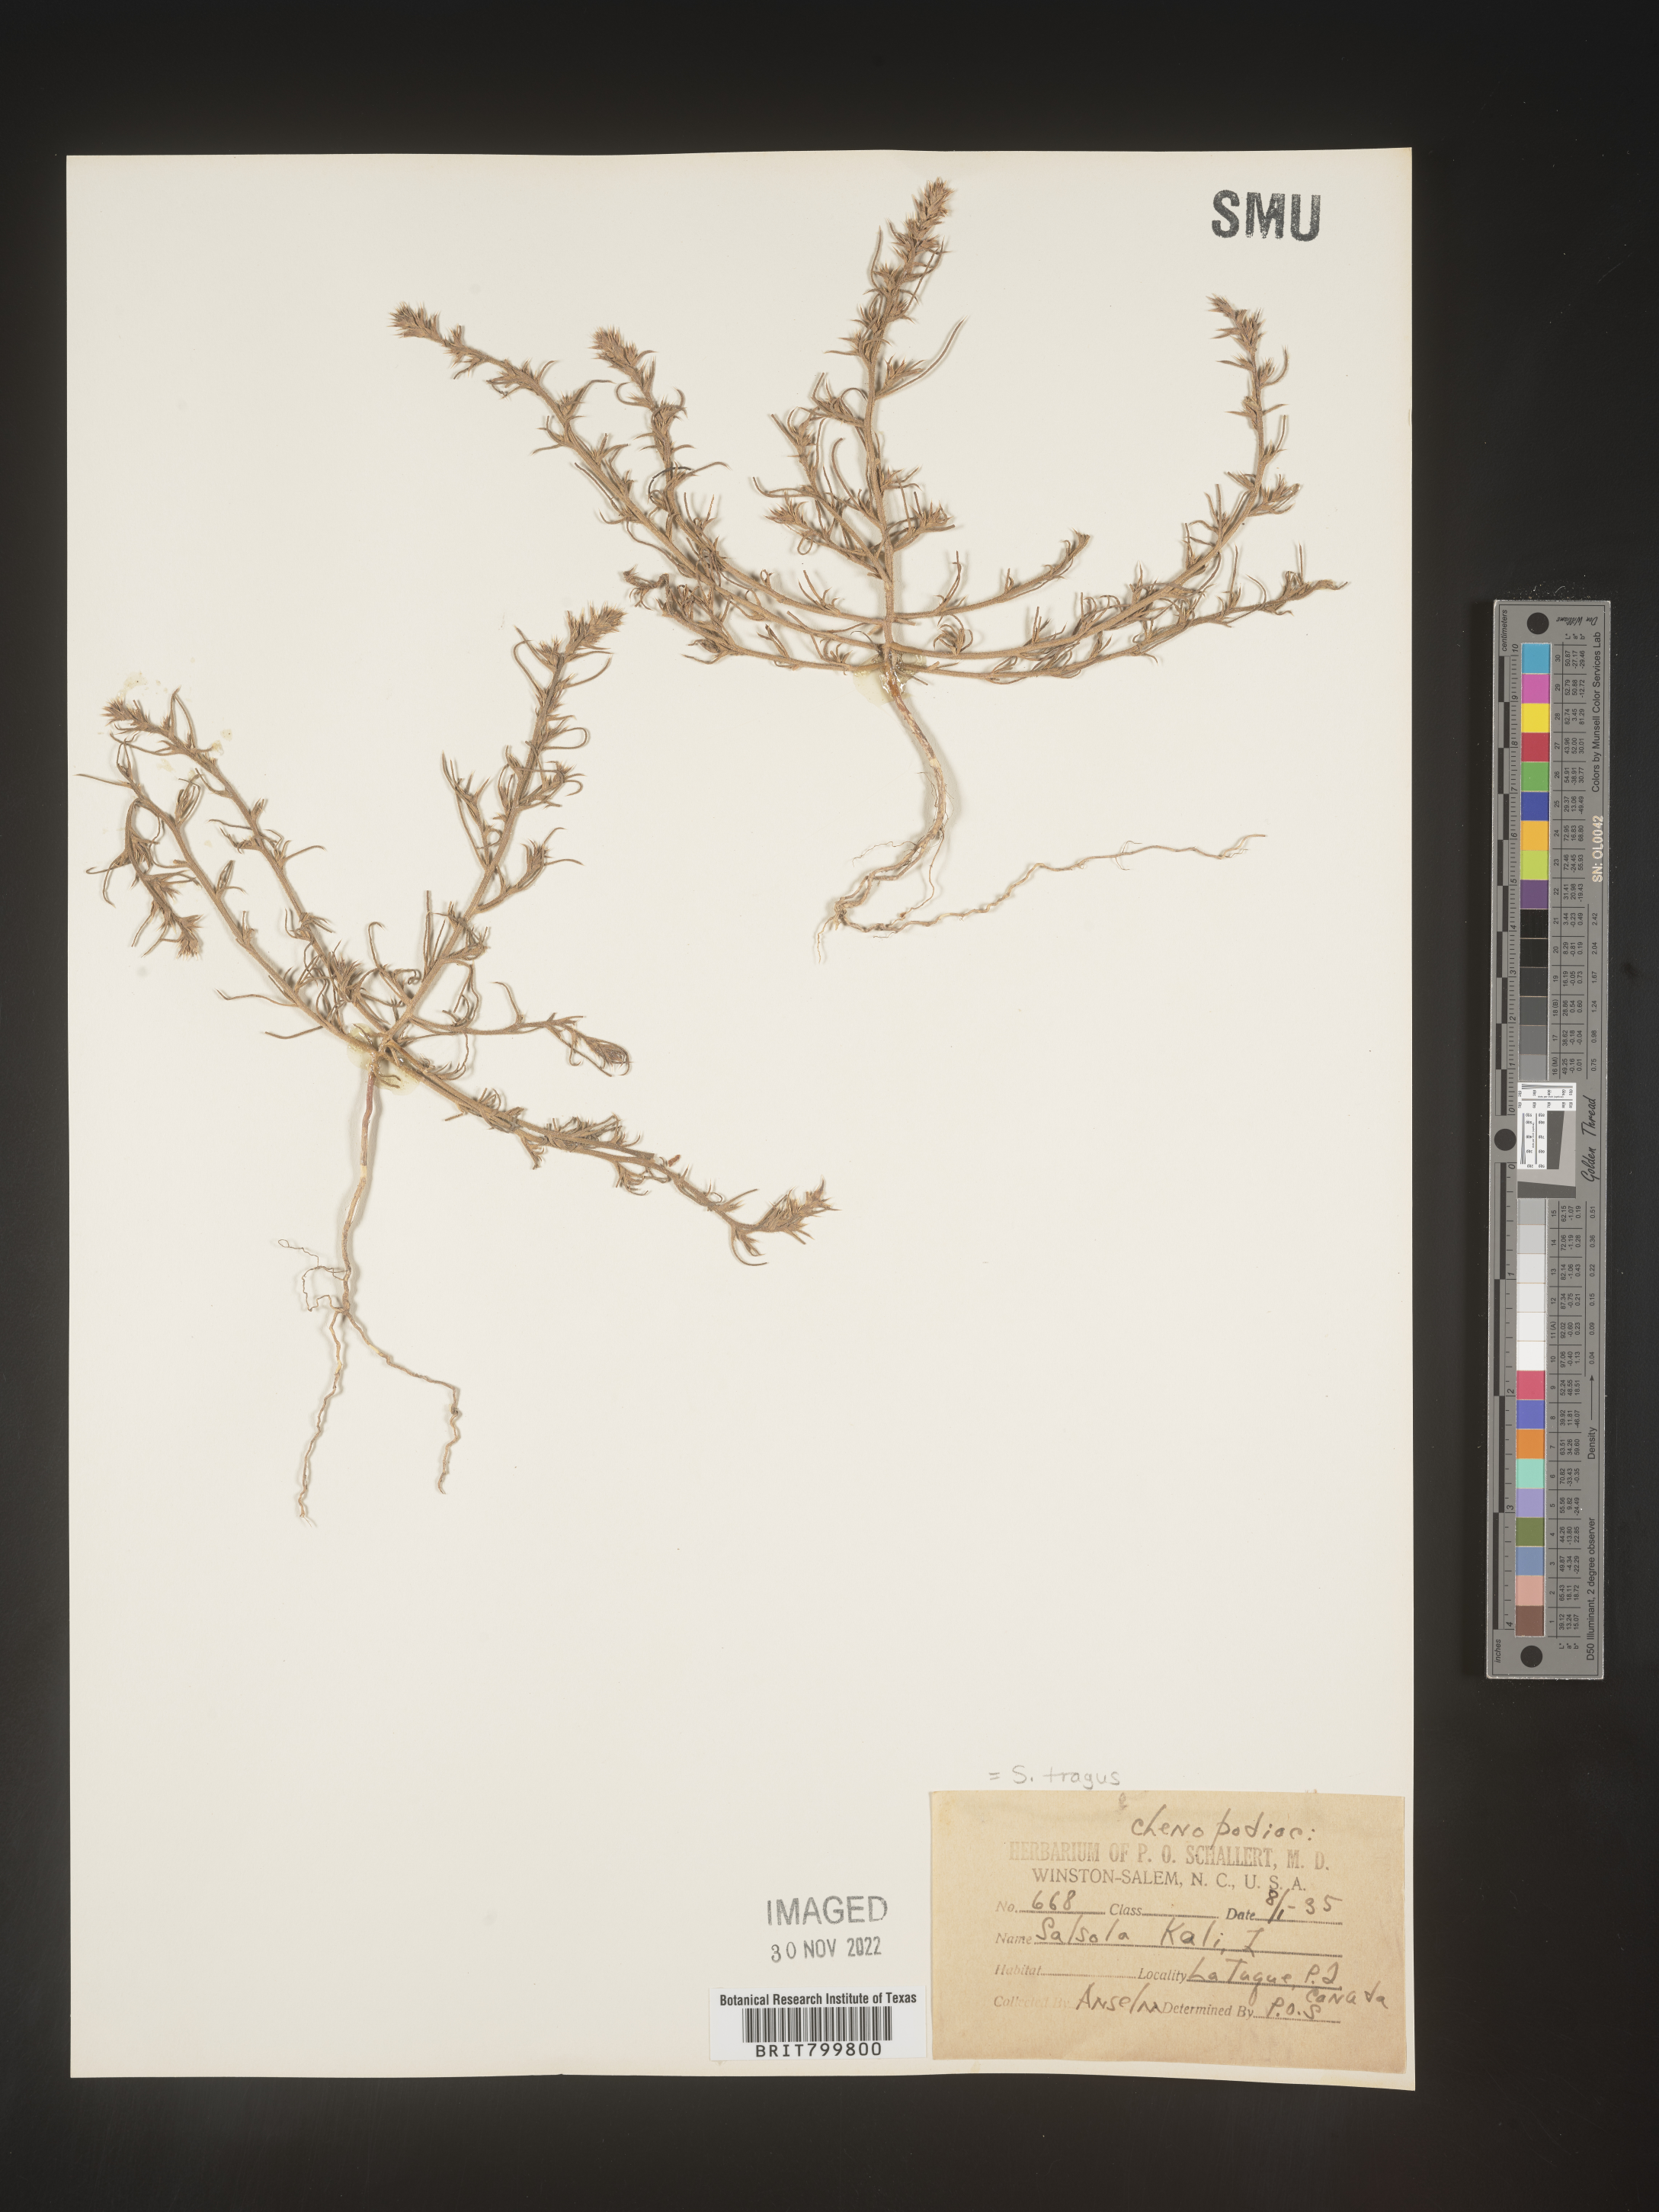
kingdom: Plantae
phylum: Tracheophyta
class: Magnoliopsida
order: Caryophyllales
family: Amaranthaceae
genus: Salsola
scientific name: Salsola tragus
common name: Prickly russian thistle
